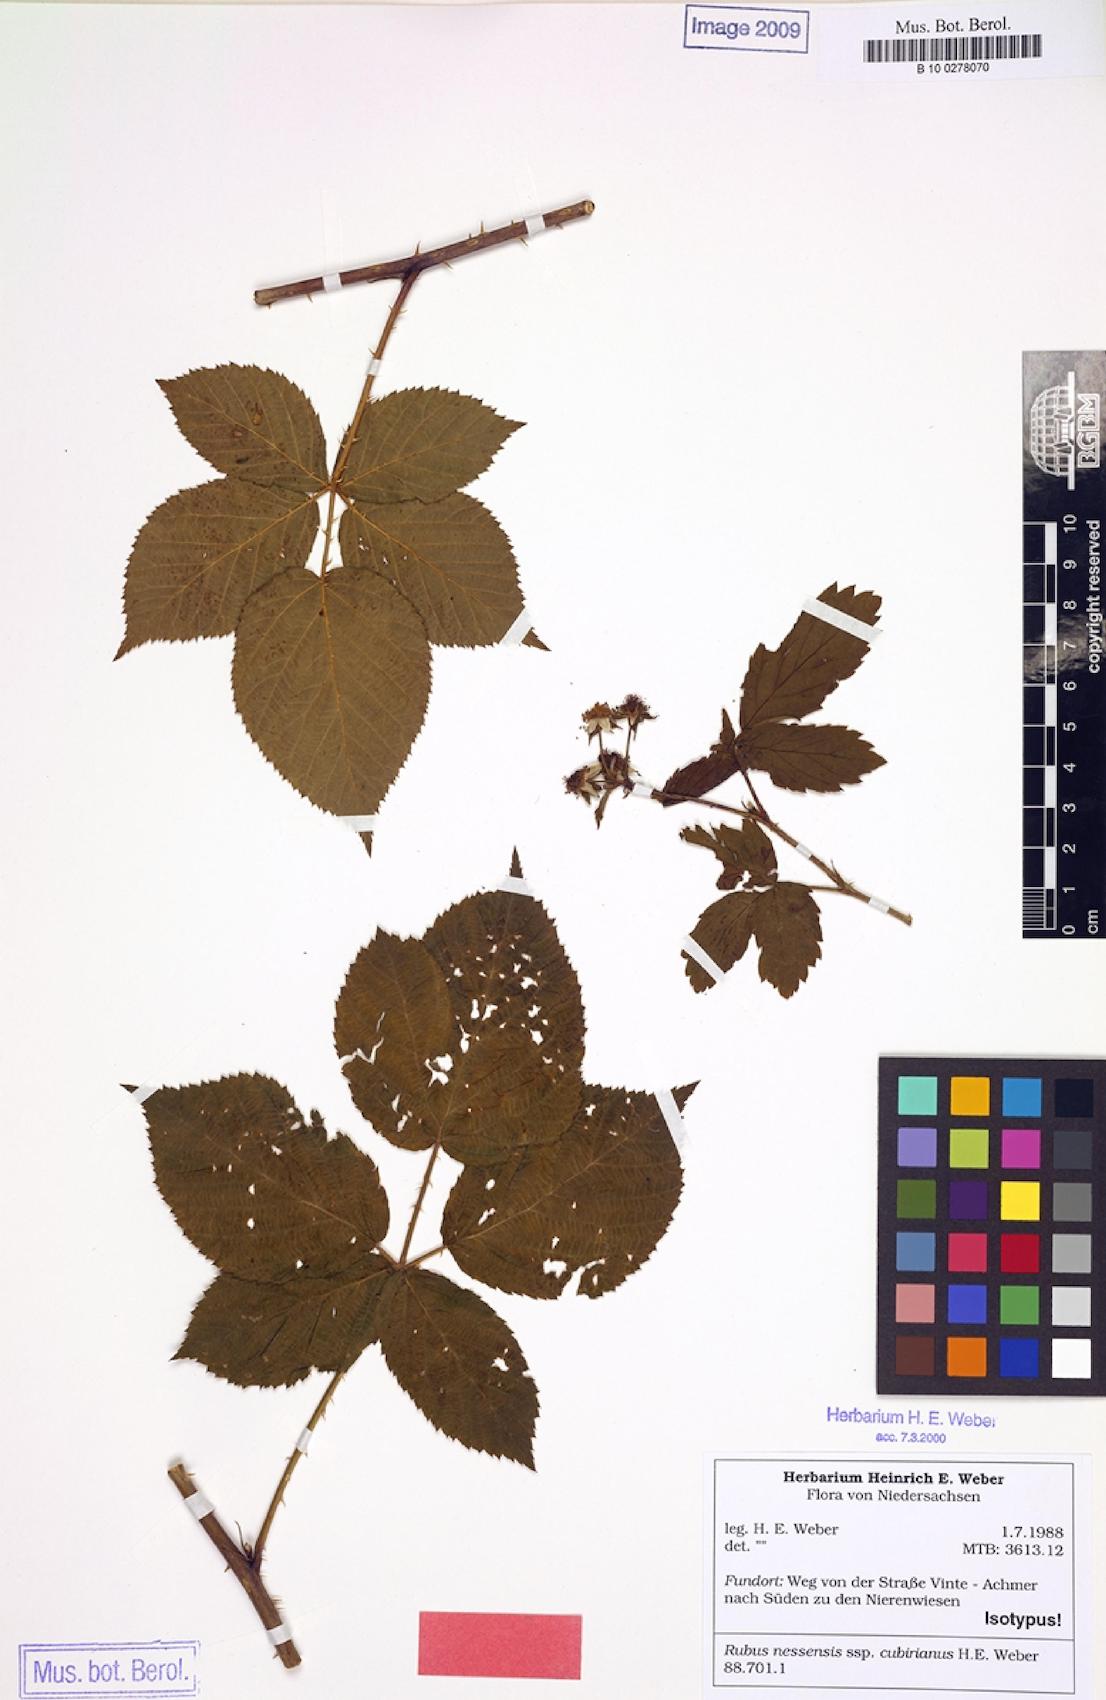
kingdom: Plantae
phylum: Tracheophyta
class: Magnoliopsida
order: Rosales
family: Rosaceae
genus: Rubus
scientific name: Rubus cubirianus
